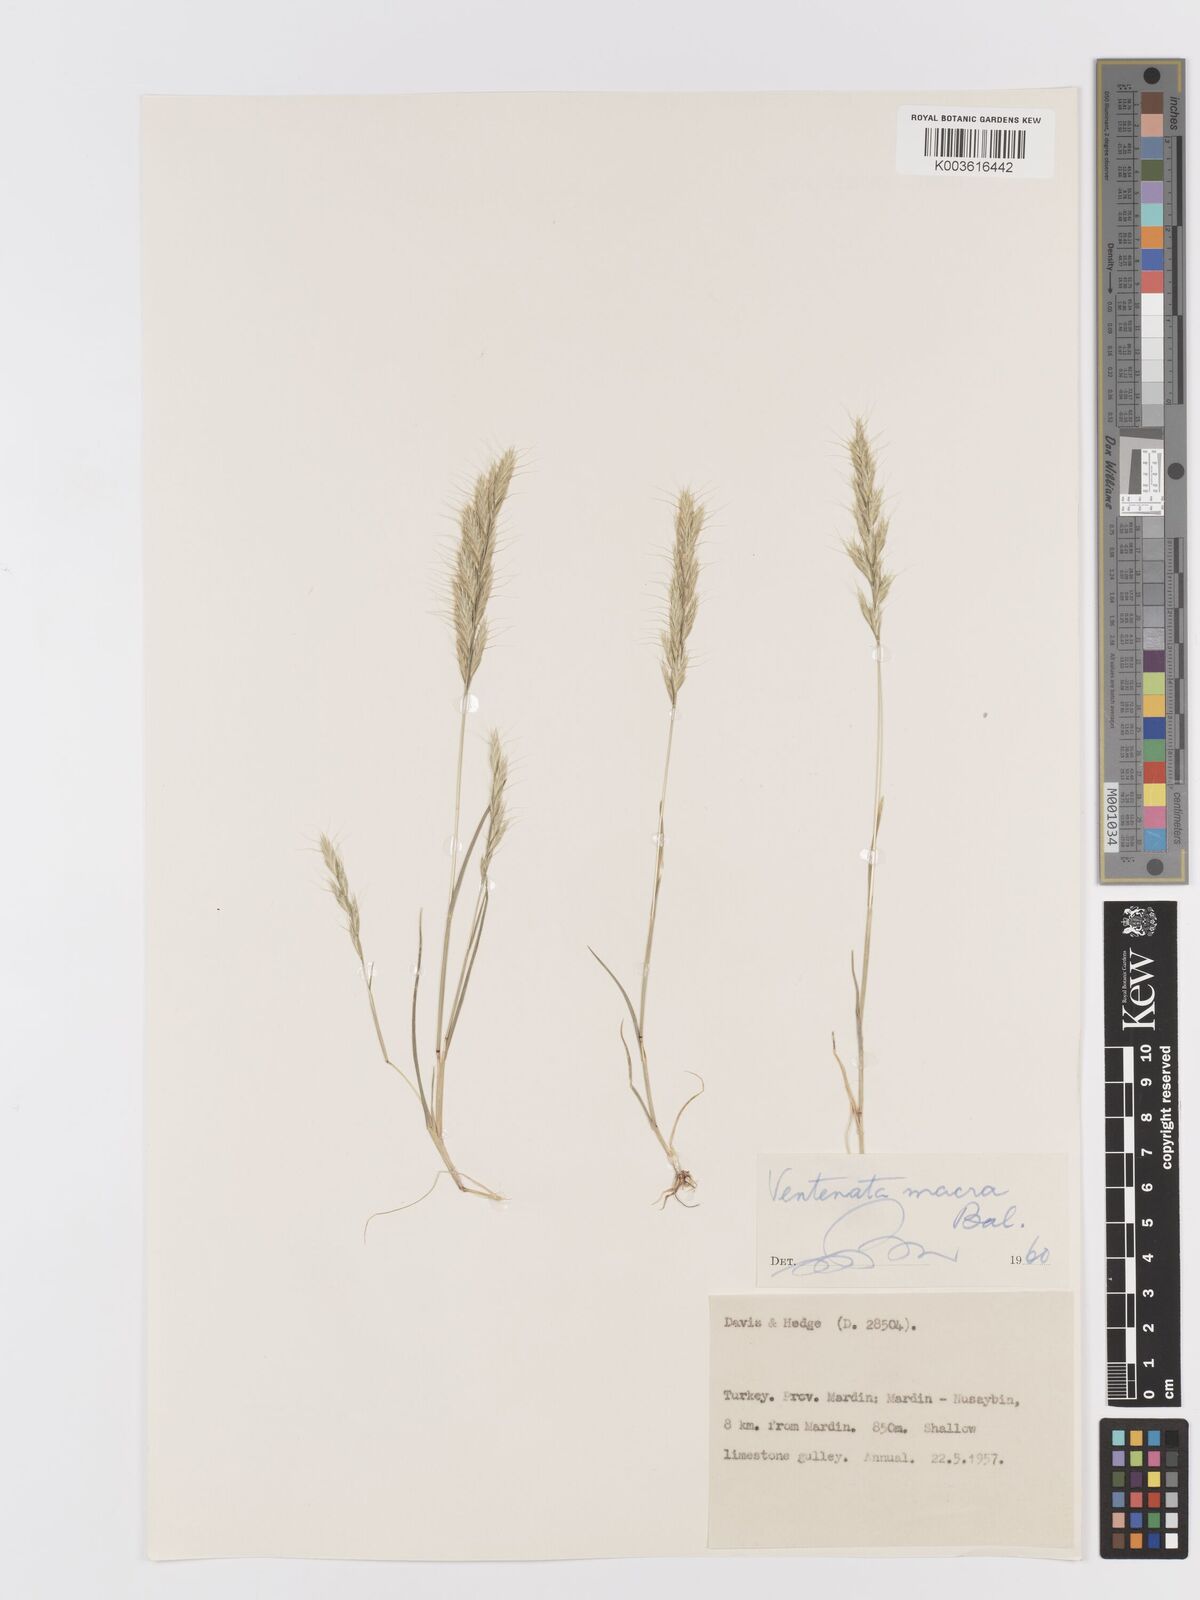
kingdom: Plantae
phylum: Tracheophyta
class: Liliopsida
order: Poales
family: Poaceae
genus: Ventenata
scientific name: Ventenata macra
